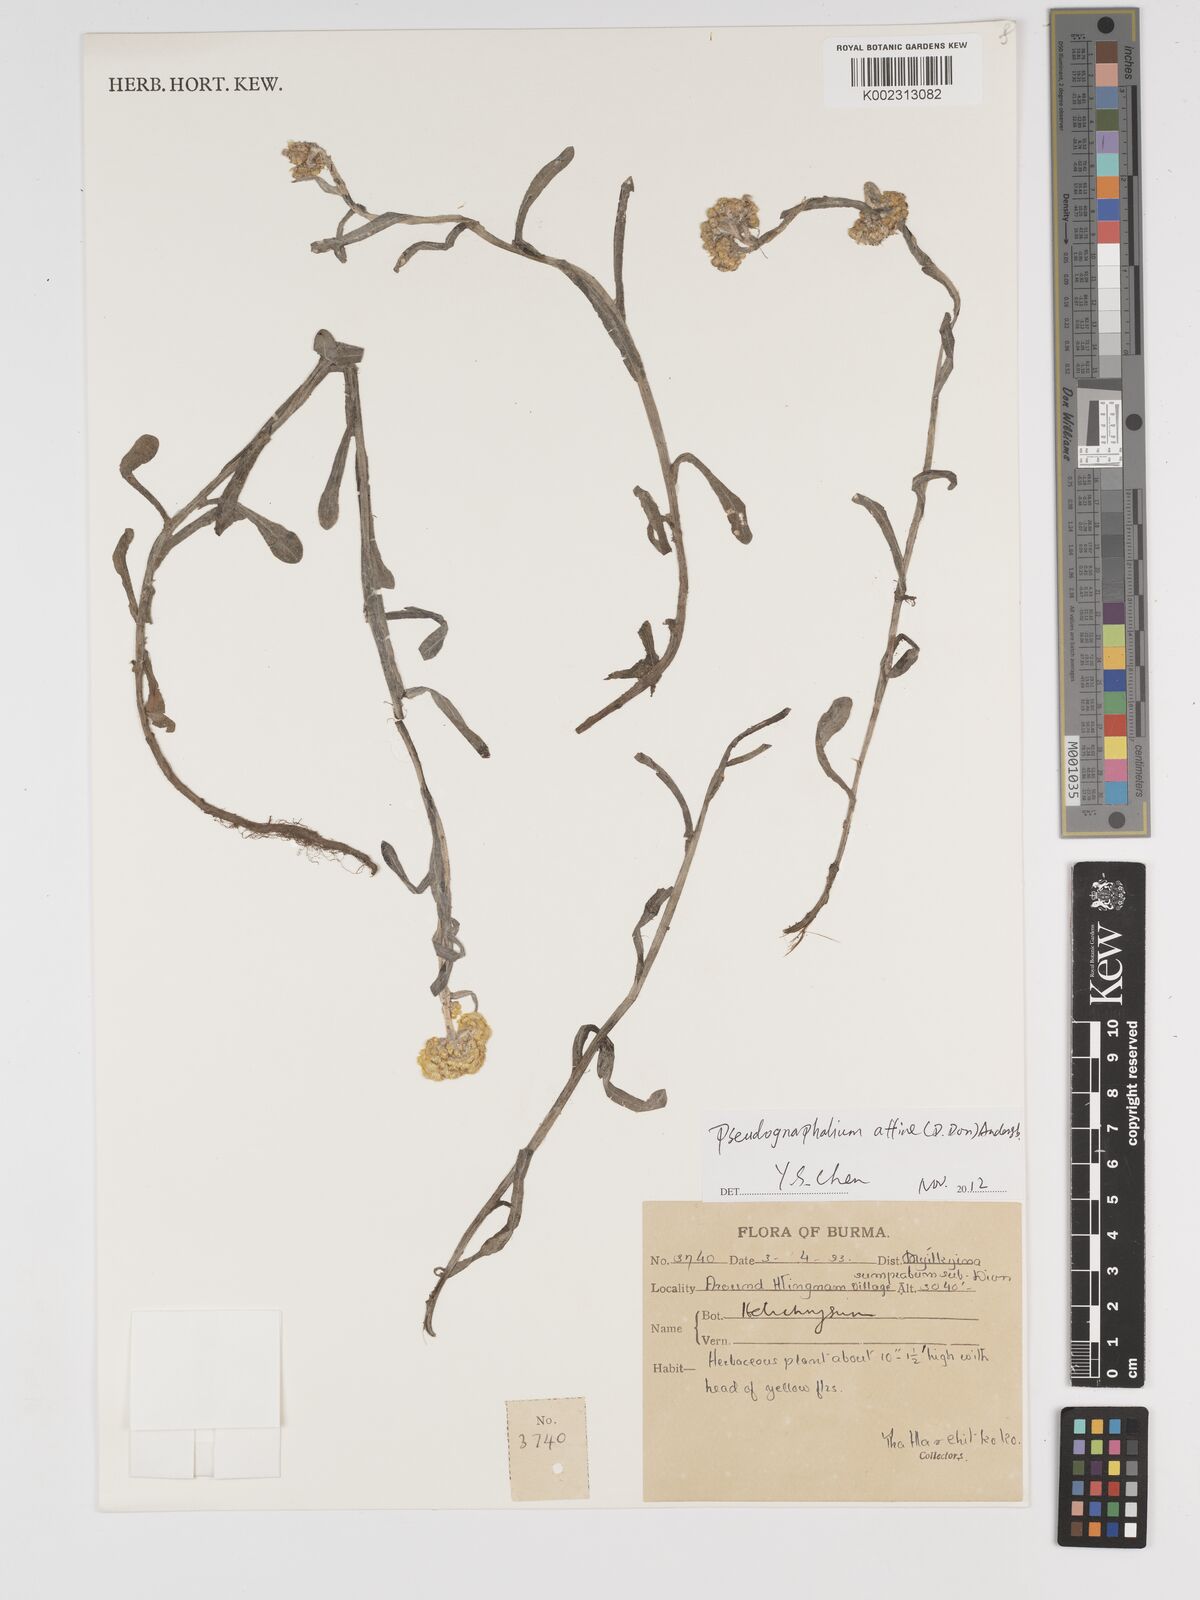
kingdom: Plantae
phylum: Tracheophyta
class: Magnoliopsida
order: Asterales
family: Asteraceae
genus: Helichrysum
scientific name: Helichrysum
